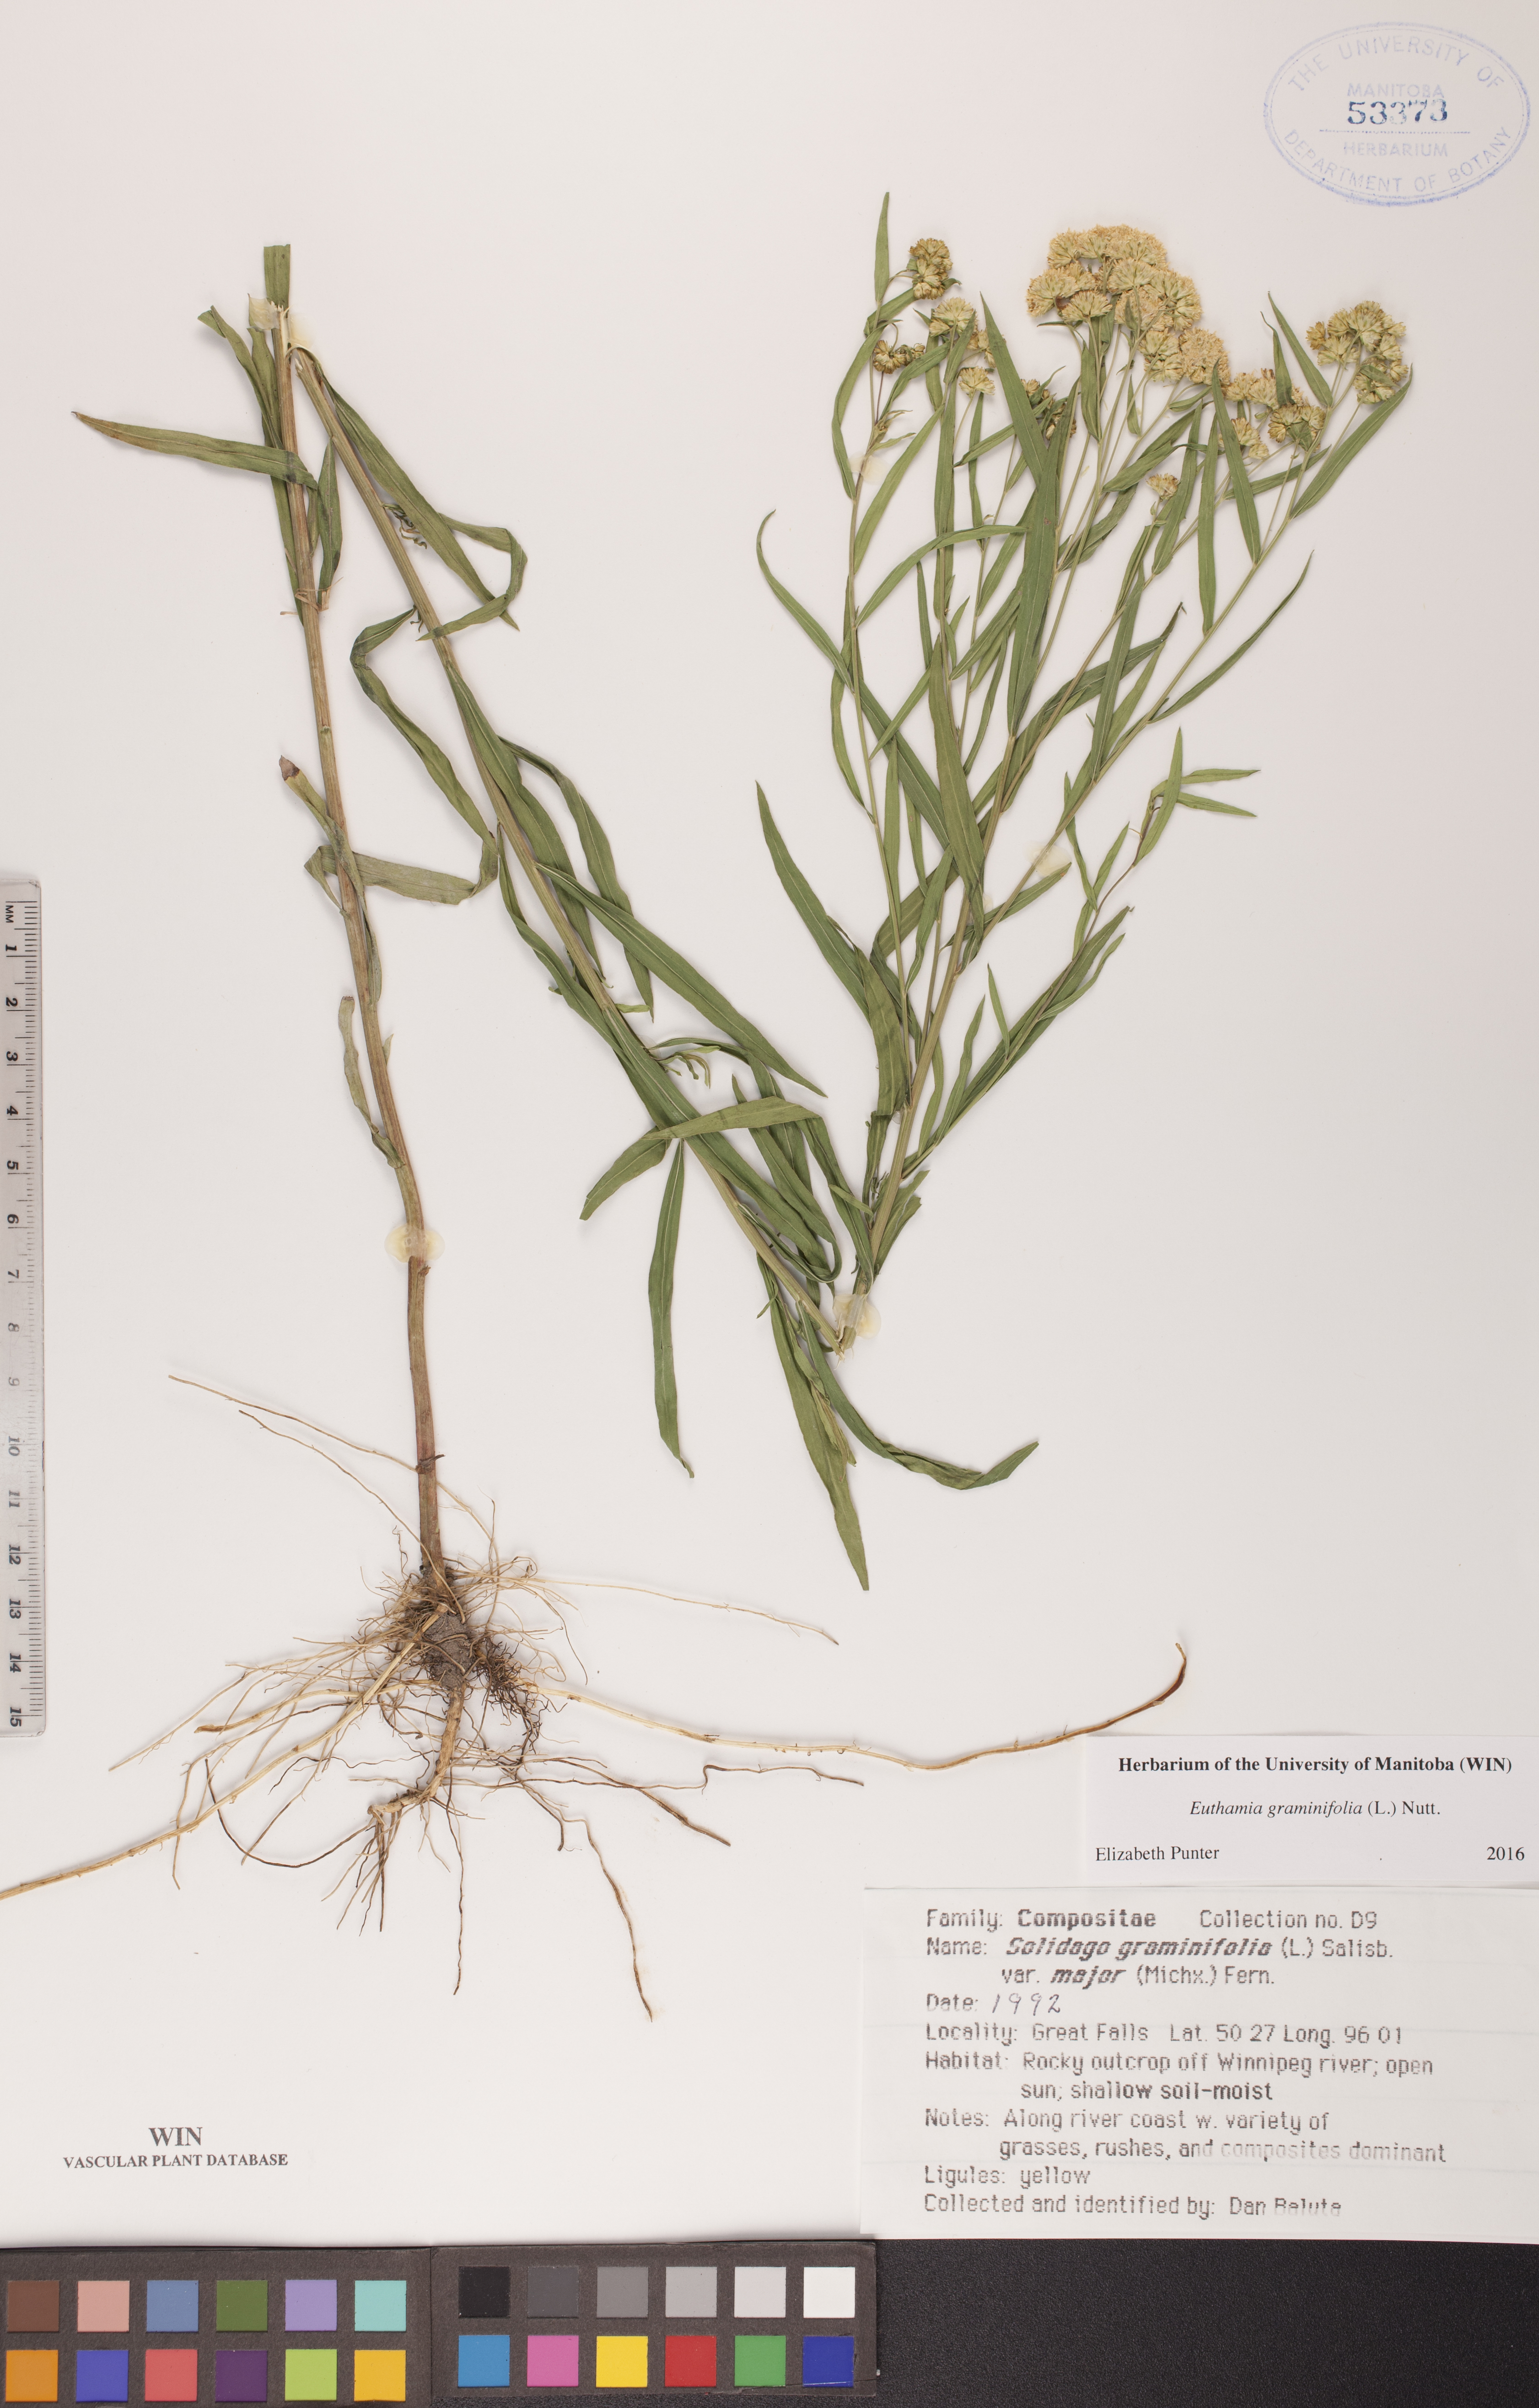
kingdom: Plantae
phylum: Tracheophyta
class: Magnoliopsida
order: Asterales
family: Asteraceae
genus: Euthamia
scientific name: Euthamia graminifolia
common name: Common goldentop
